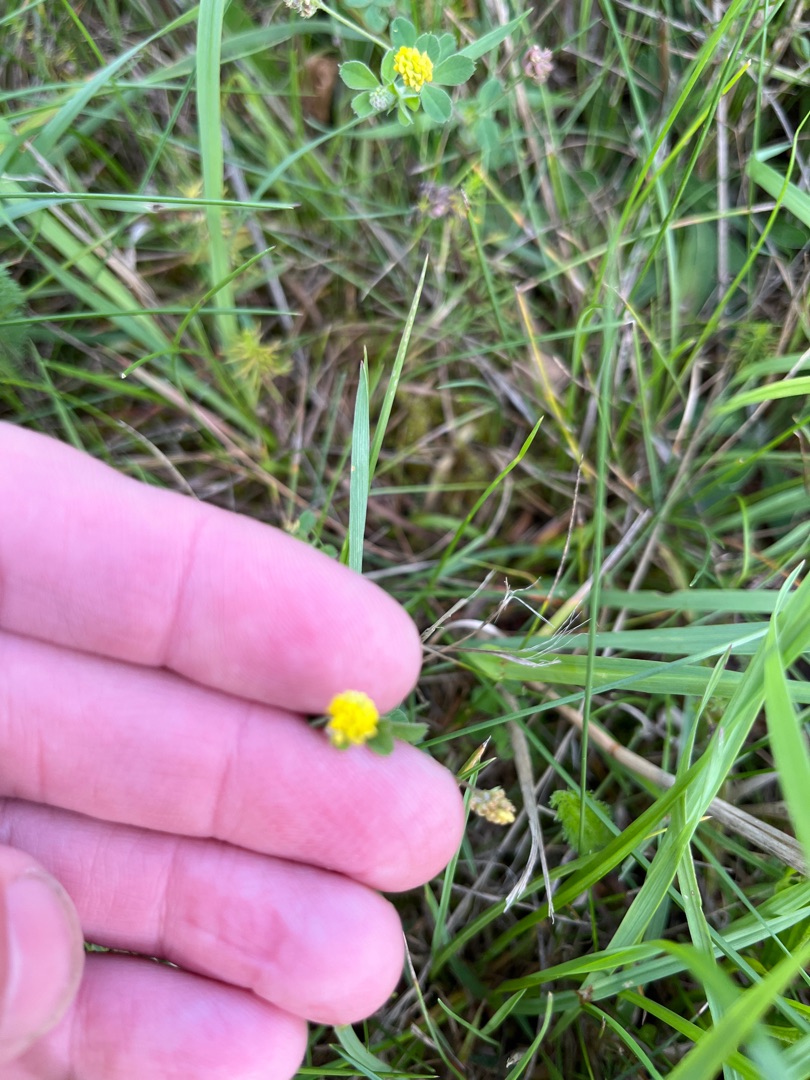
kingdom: Plantae
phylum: Tracheophyta
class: Magnoliopsida
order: Fabales
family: Fabaceae
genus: Medicago
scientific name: Medicago lupulina
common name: Humle-sneglebælg
